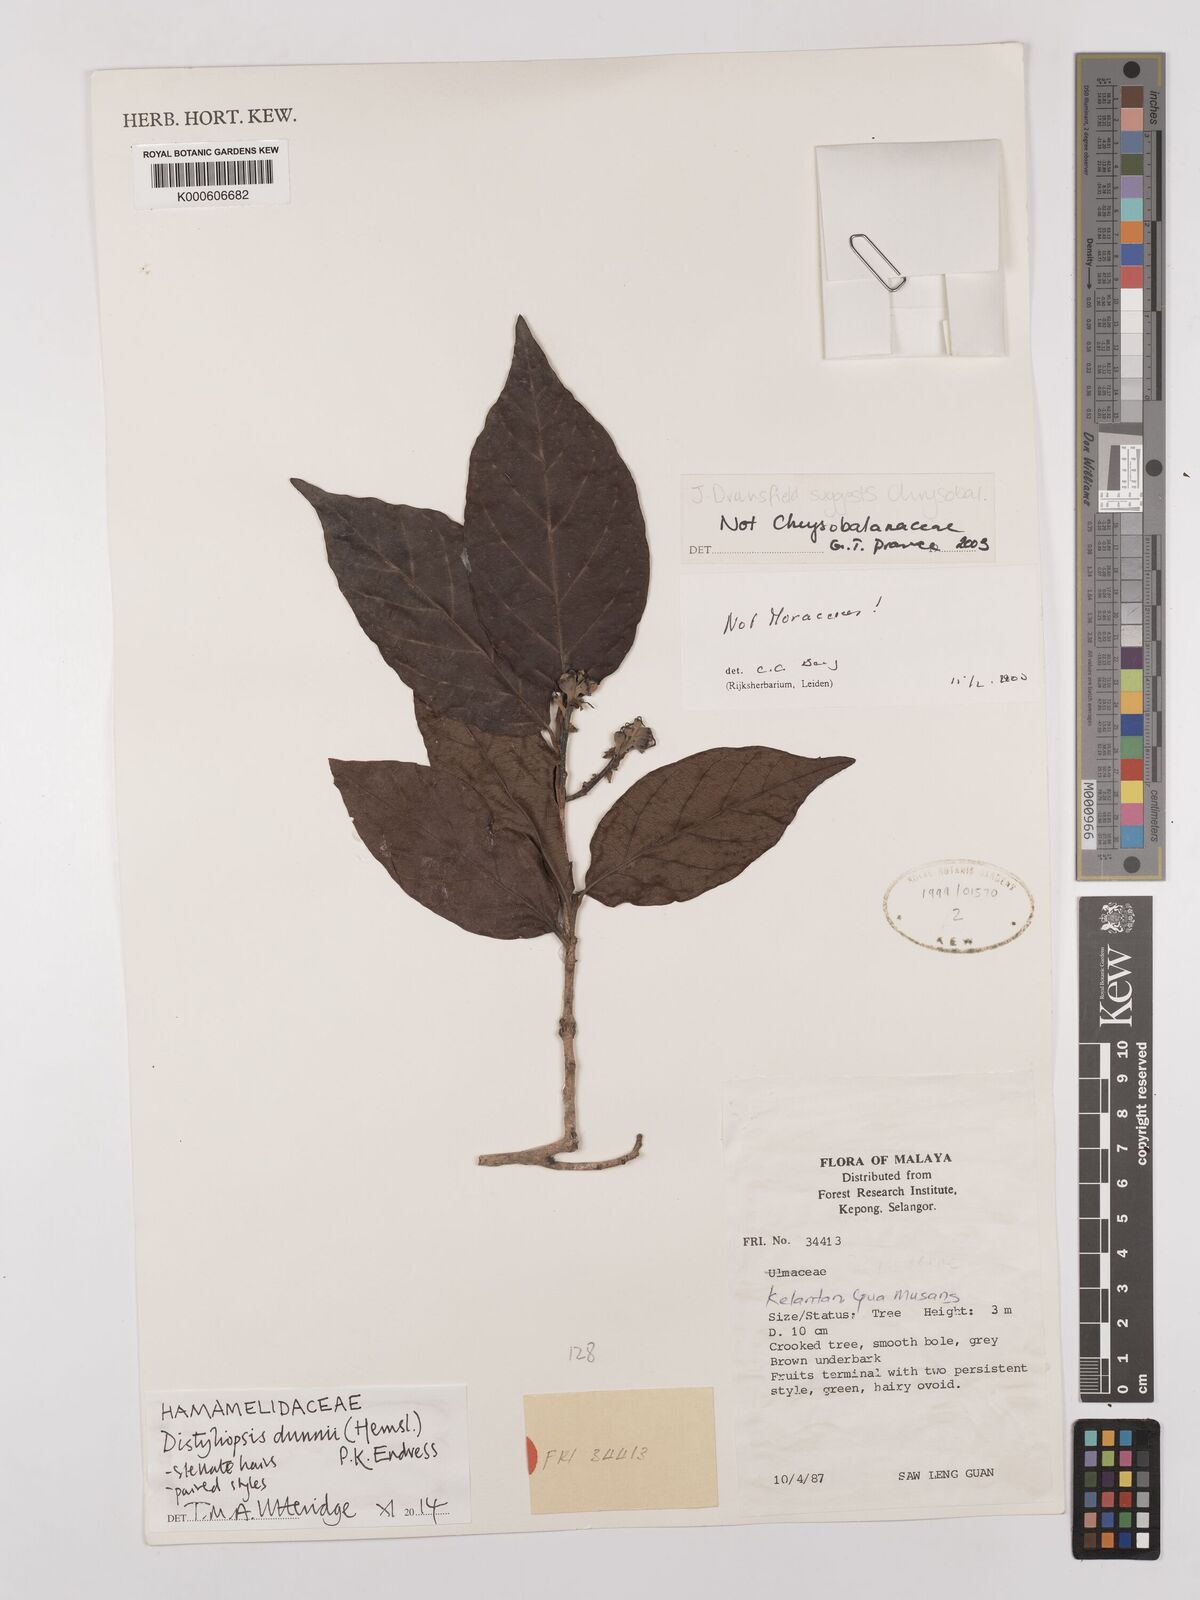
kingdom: Plantae
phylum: Tracheophyta
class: Magnoliopsida
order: Saxifragales
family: Hamamelidaceae
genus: Distyliopsis
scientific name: Distyliopsis dunnii
